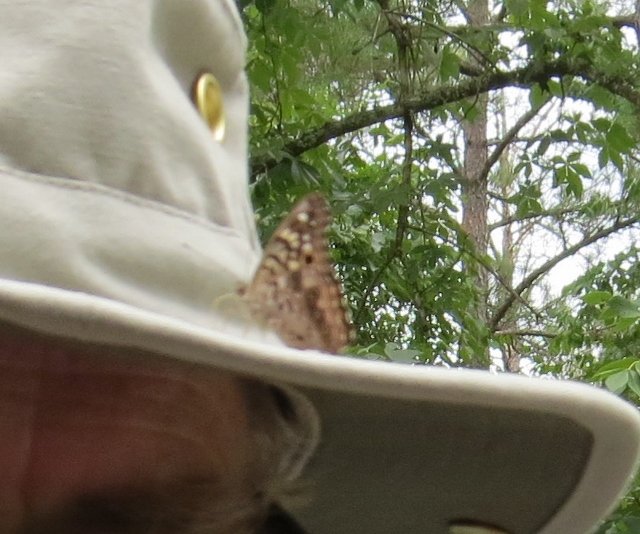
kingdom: Animalia
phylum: Arthropoda
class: Insecta
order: Lepidoptera
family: Nymphalidae
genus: Asterocampa
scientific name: Asterocampa celtis
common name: Hackberry Emperor
